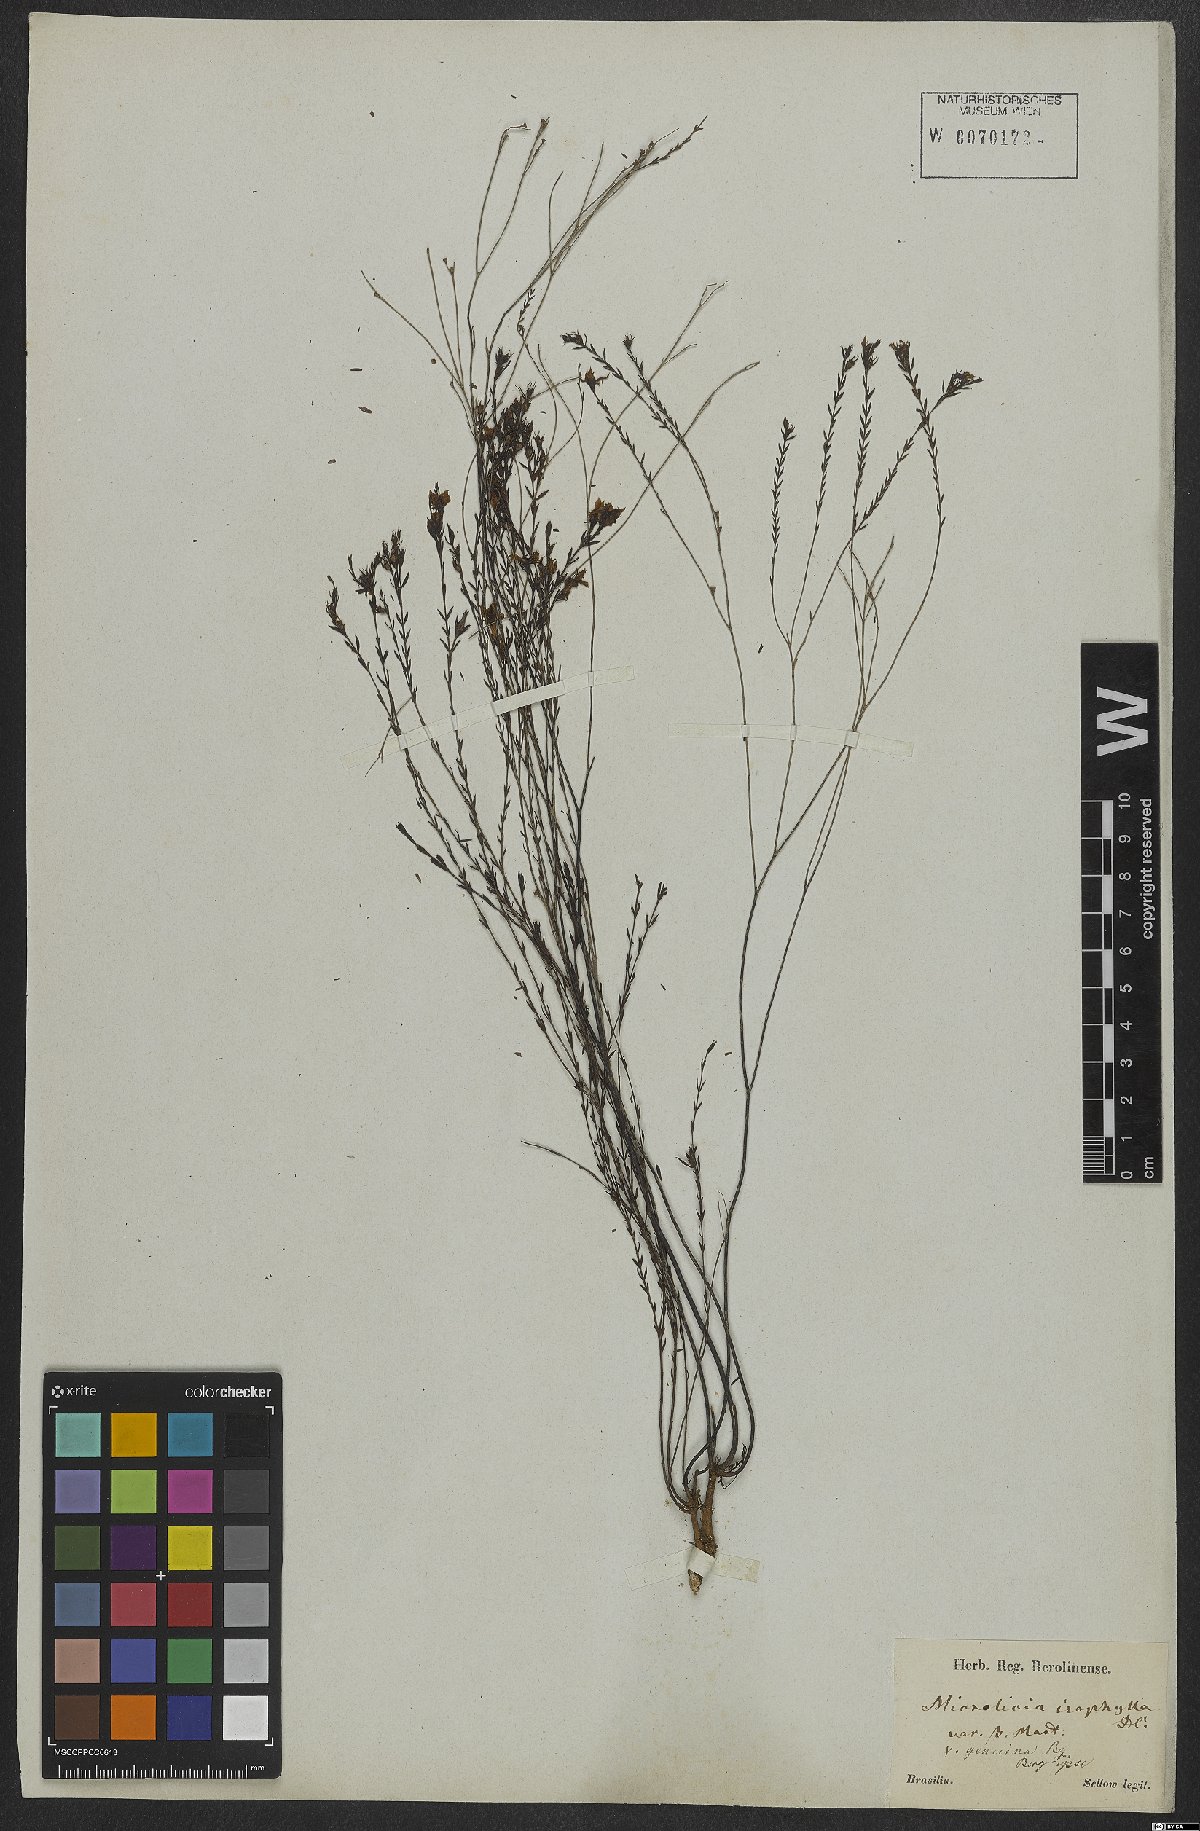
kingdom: Plantae
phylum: Tracheophyta
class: Magnoliopsida
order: Myrtales
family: Melastomataceae
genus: Microlicia
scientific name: Microlicia isophylla
